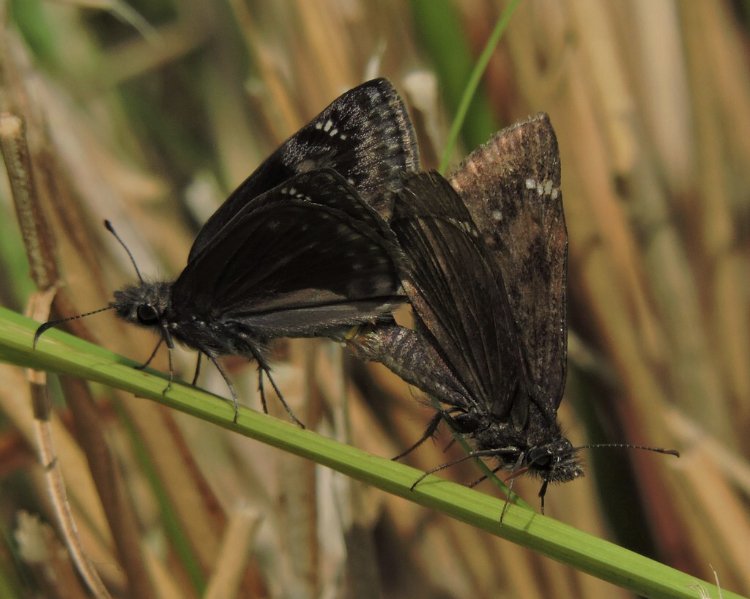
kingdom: Animalia
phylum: Arthropoda
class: Insecta
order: Lepidoptera
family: Hesperiidae
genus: Gesta
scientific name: Gesta
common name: Wild Indigo Duskywing
